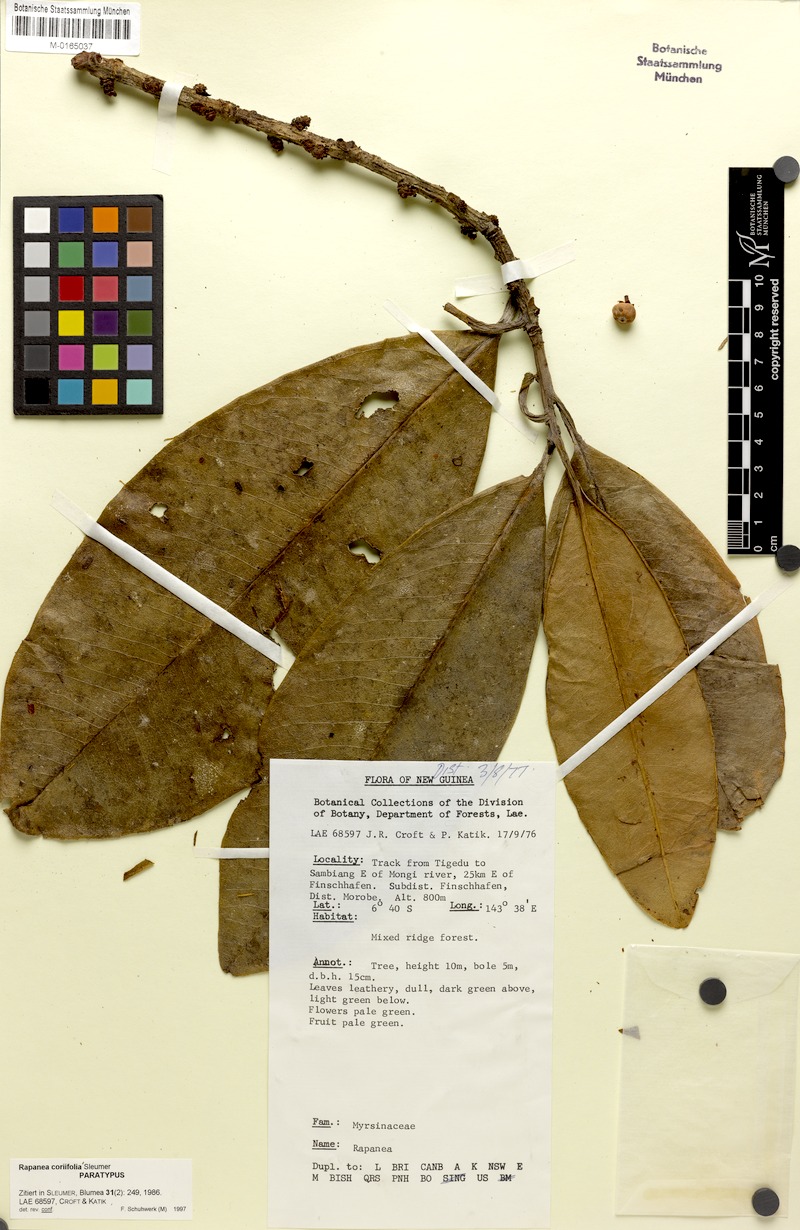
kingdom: Plantae
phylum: Tracheophyta
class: Magnoliopsida
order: Ericales
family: Primulaceae
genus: Myrsine
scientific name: Myrsine coriifolia
